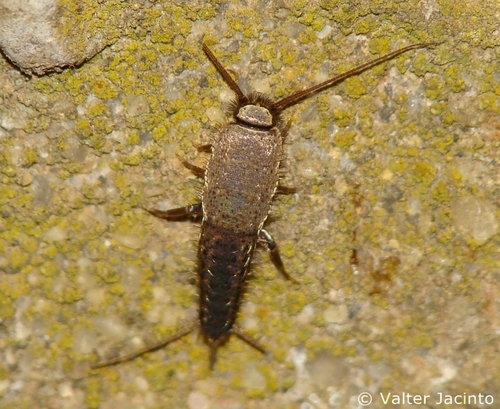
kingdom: Animalia
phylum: Arthropoda
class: Insecta
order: Zygentoma
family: Lepismatidae
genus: Ctenolepisma
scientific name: Ctenolepisma ciliata
